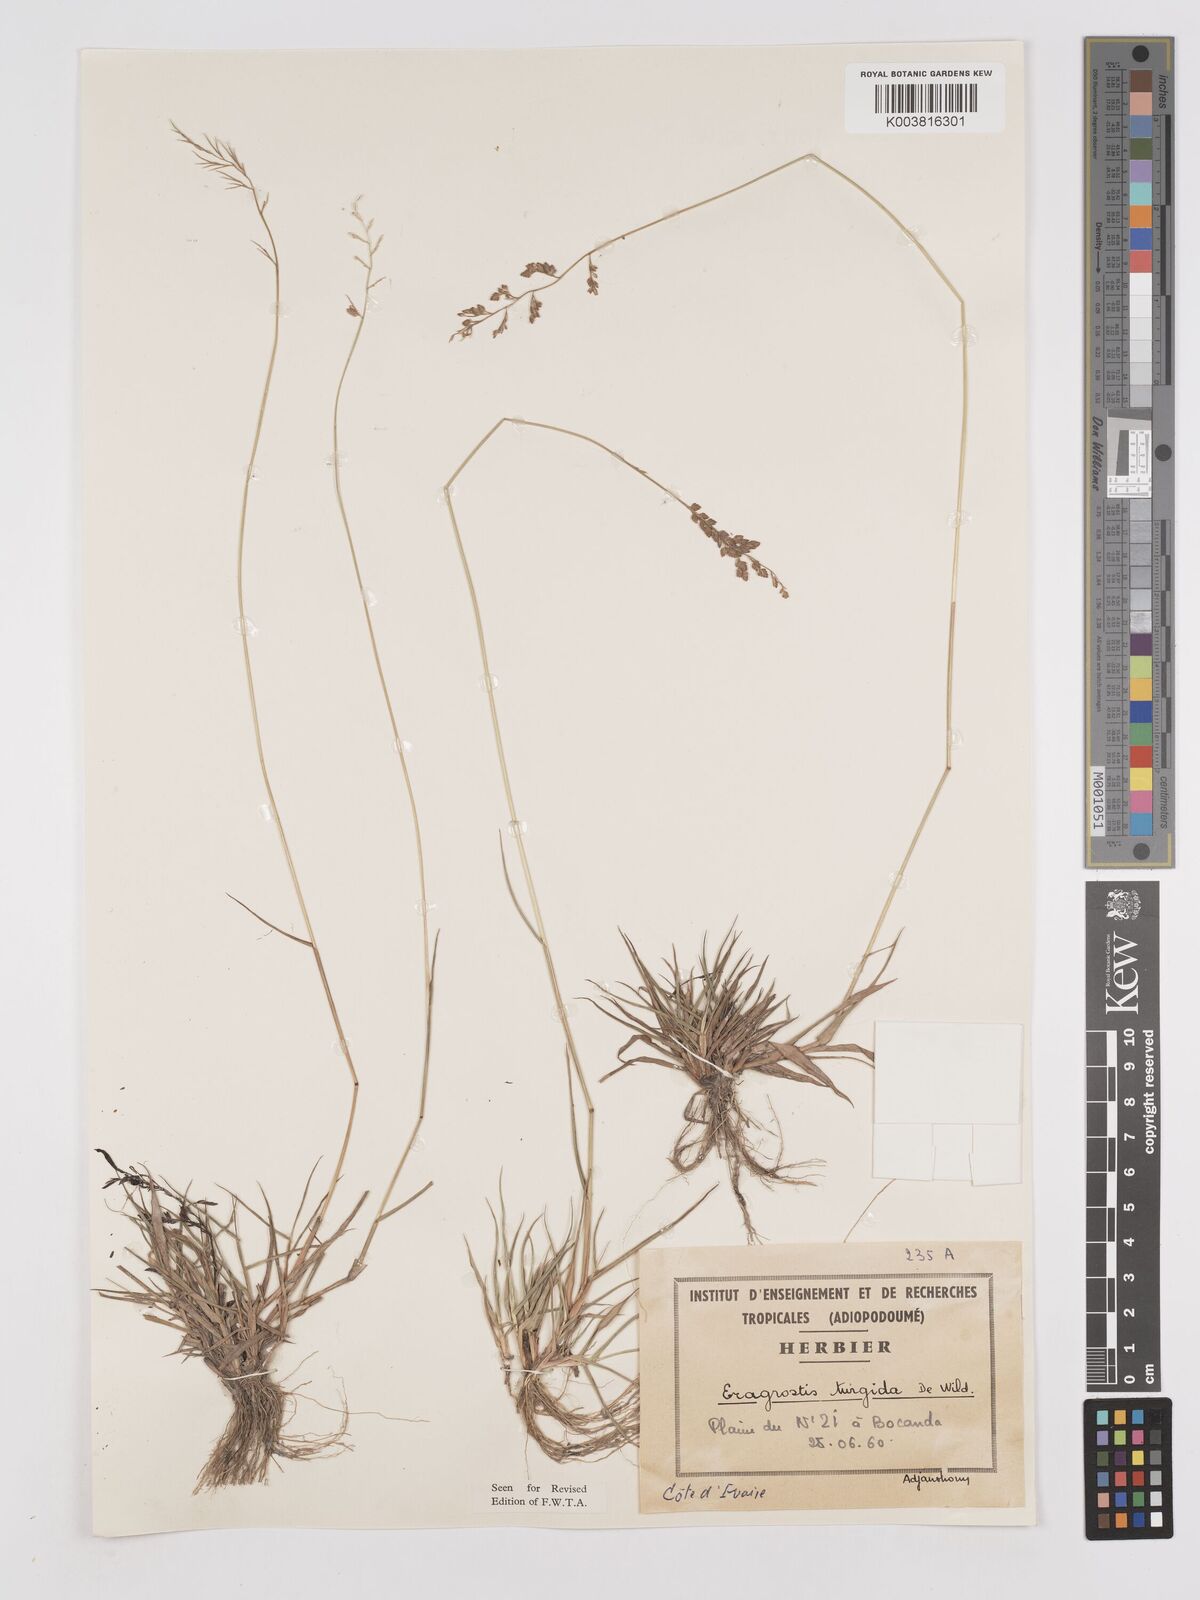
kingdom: Plantae
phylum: Tracheophyta
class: Liliopsida
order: Poales
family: Poaceae
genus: Eragrostis
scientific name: Eragrostis turgida
